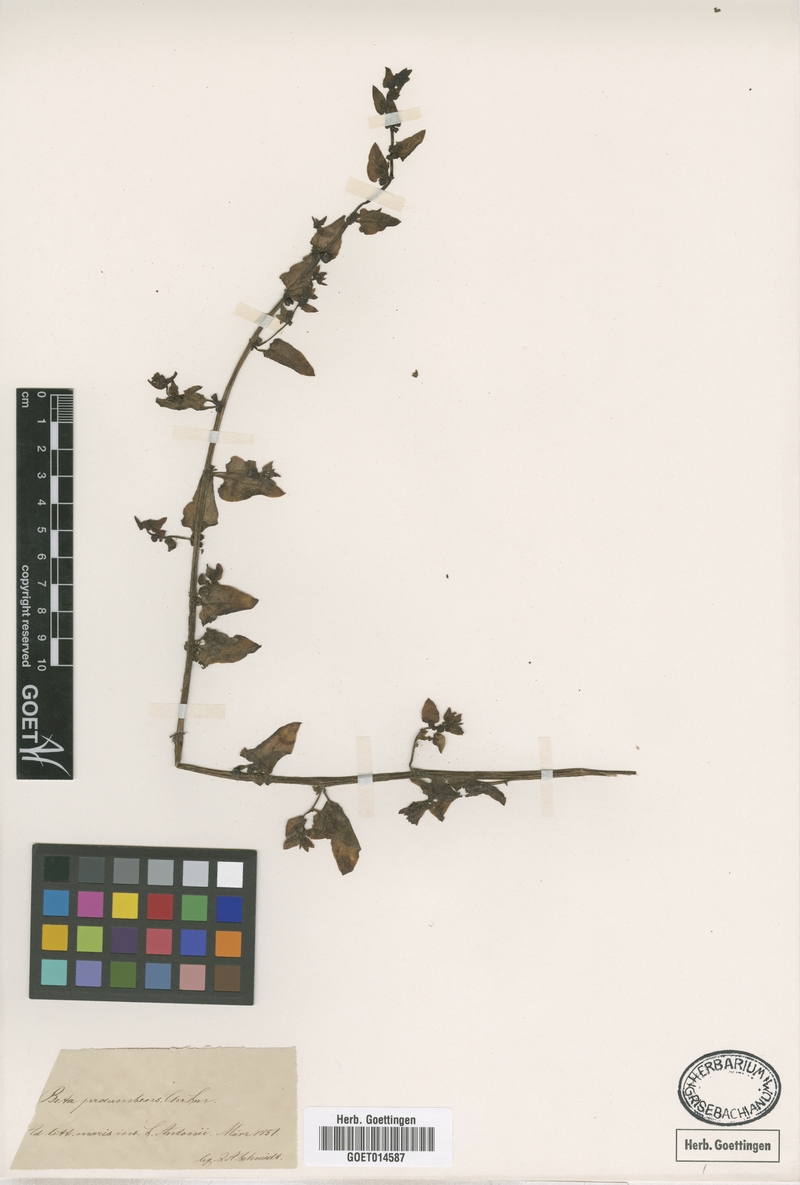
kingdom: Plantae
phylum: Tracheophyta
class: Magnoliopsida
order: Caryophyllales
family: Amaranthaceae
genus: Patellifolia
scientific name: Patellifolia procumbens
